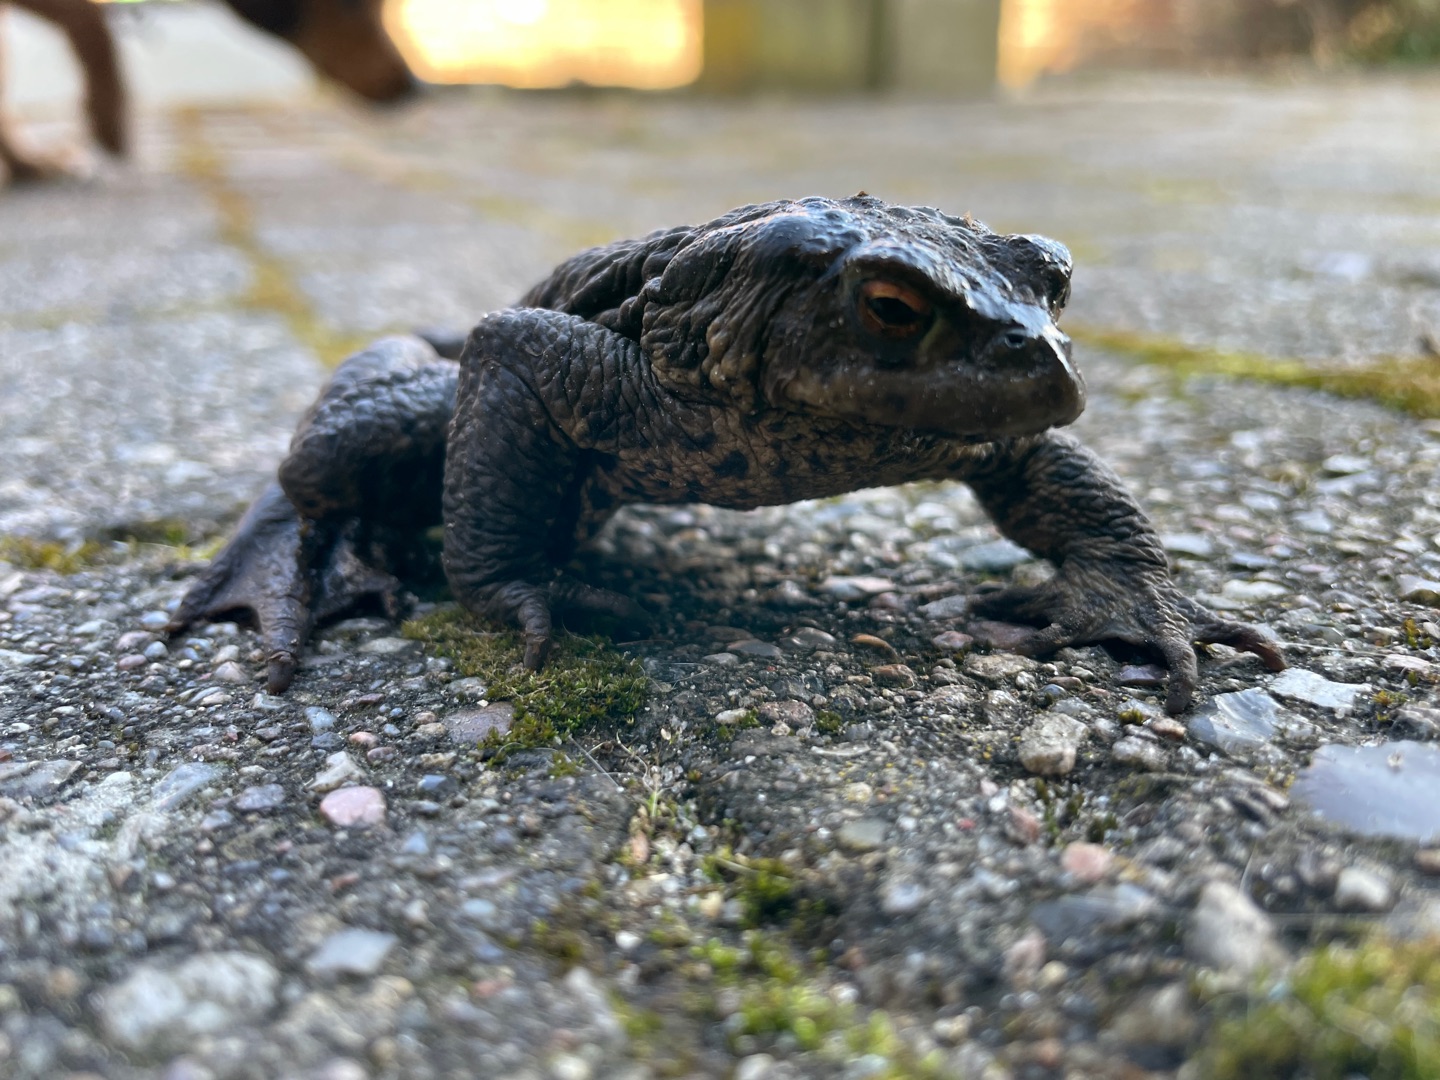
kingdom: Animalia
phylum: Chordata
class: Amphibia
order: Anura
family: Bufonidae
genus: Bufo
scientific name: Bufo bufo
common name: Skrubtudse
